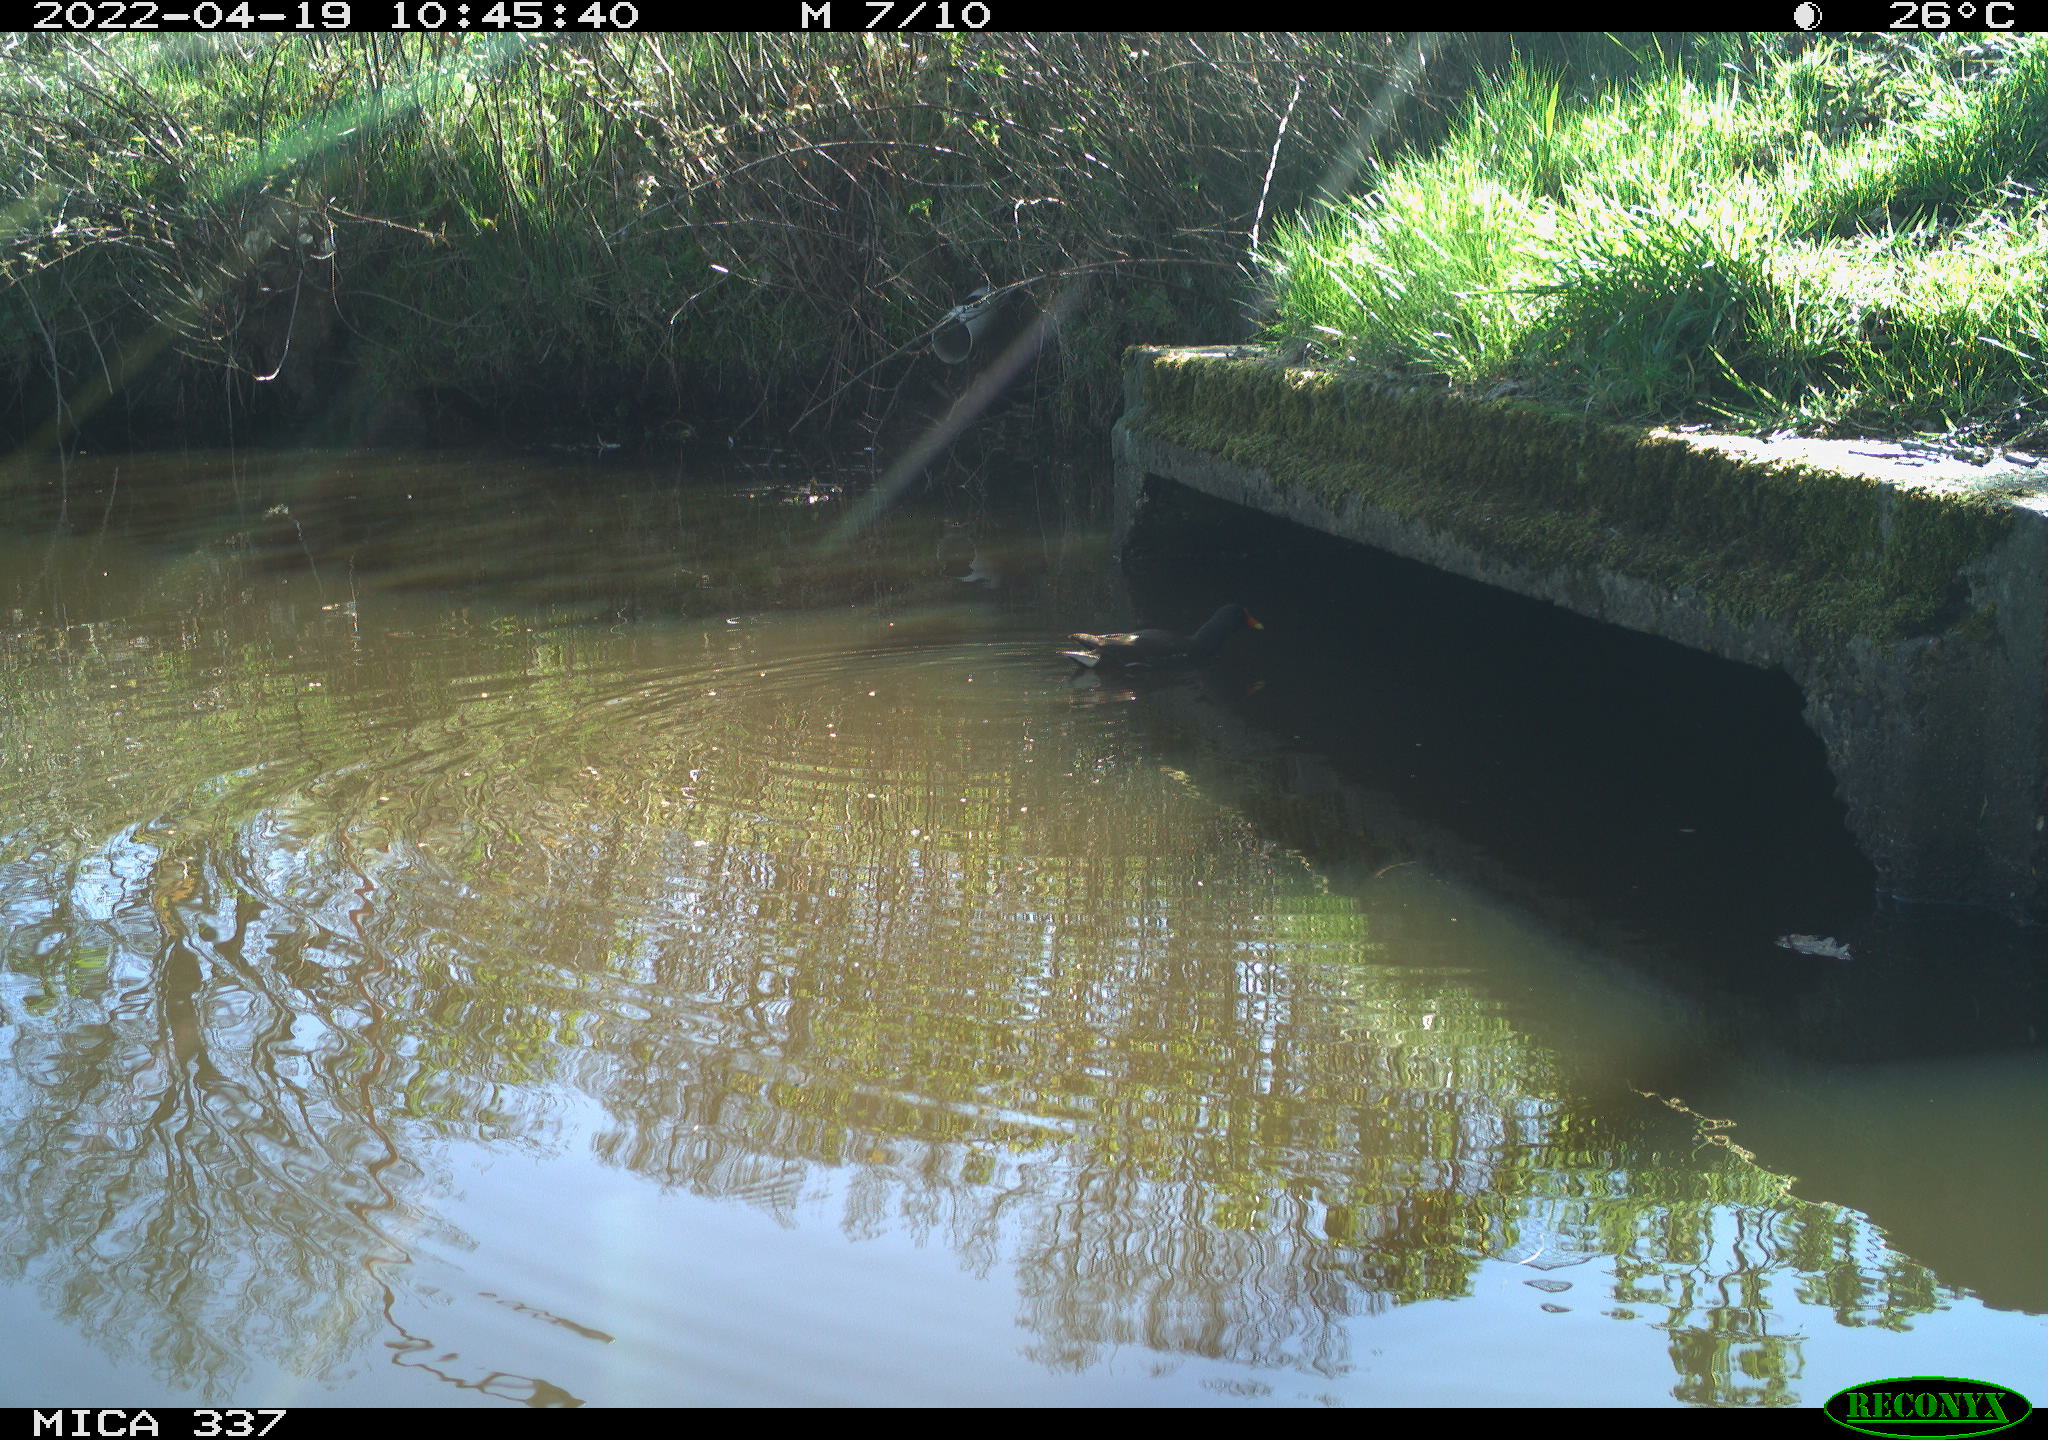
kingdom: Animalia
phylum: Chordata
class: Aves
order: Gruiformes
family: Rallidae
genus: Gallinula
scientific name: Gallinula chloropus
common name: Common moorhen
